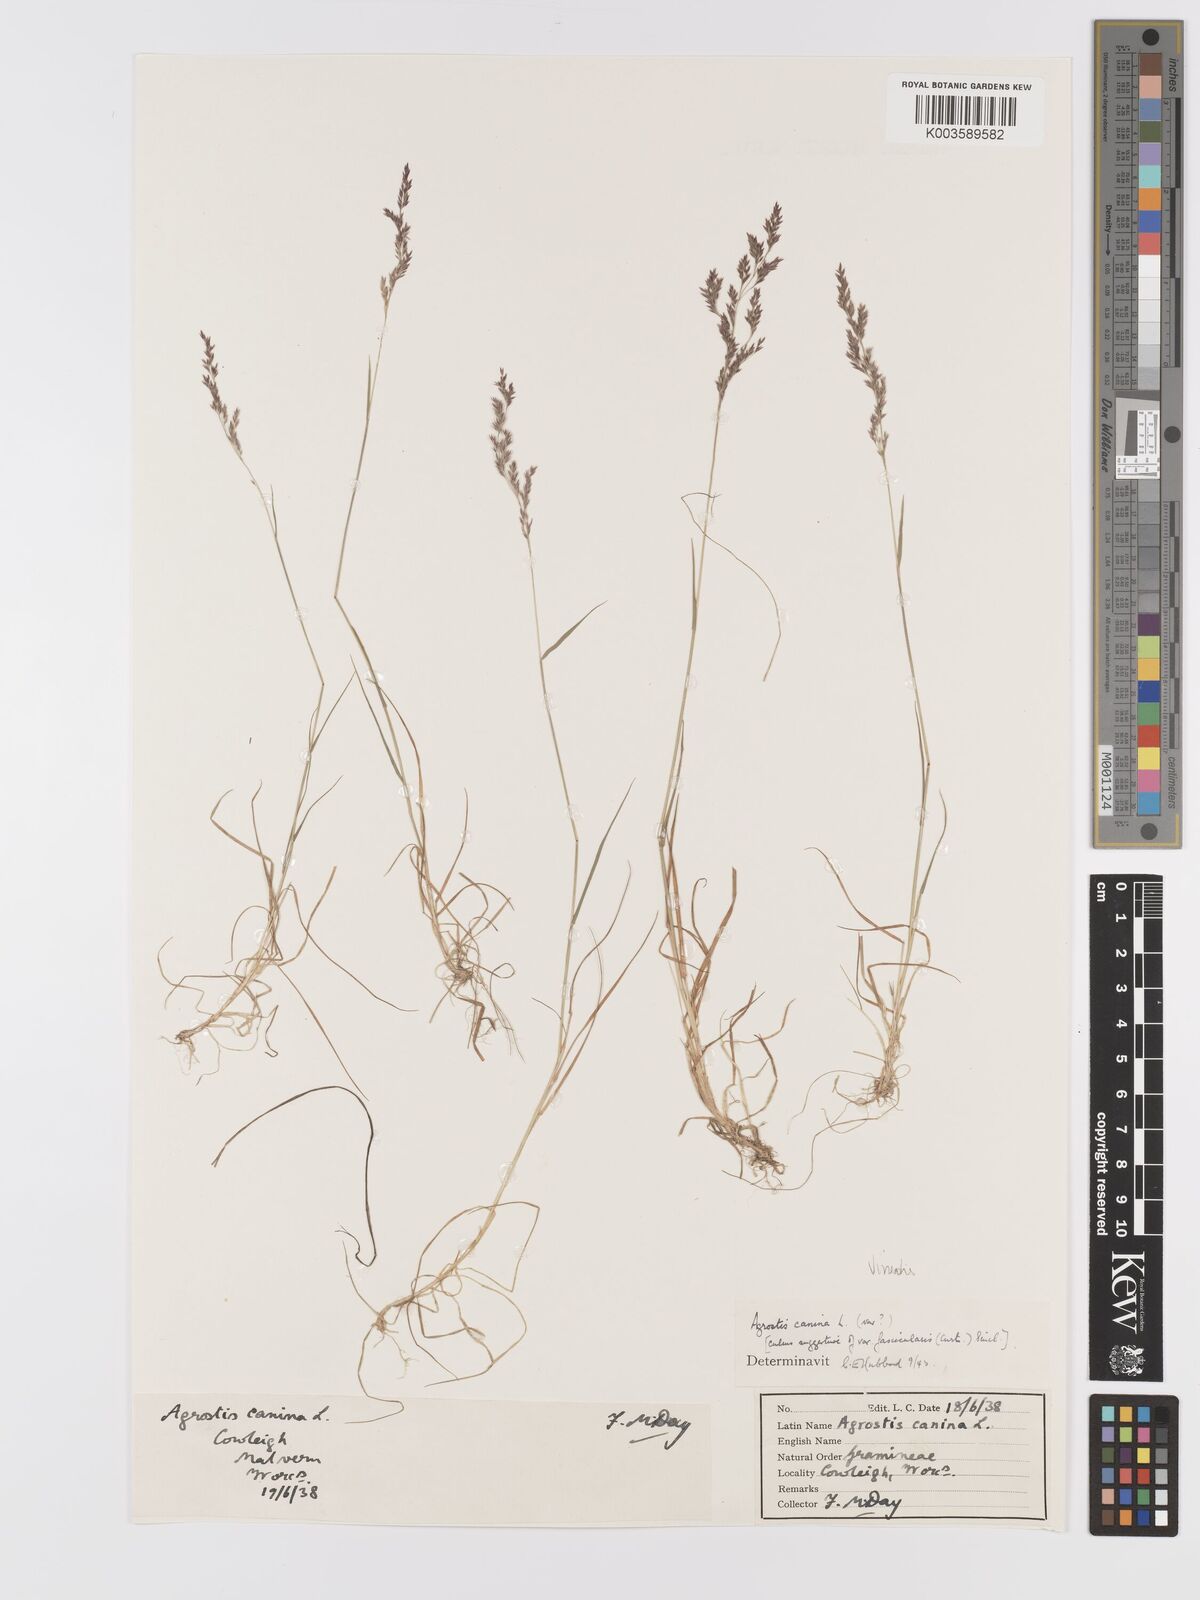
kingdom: Plantae
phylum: Tracheophyta
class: Liliopsida
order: Poales
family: Poaceae
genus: Agrostis
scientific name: Agrostis
